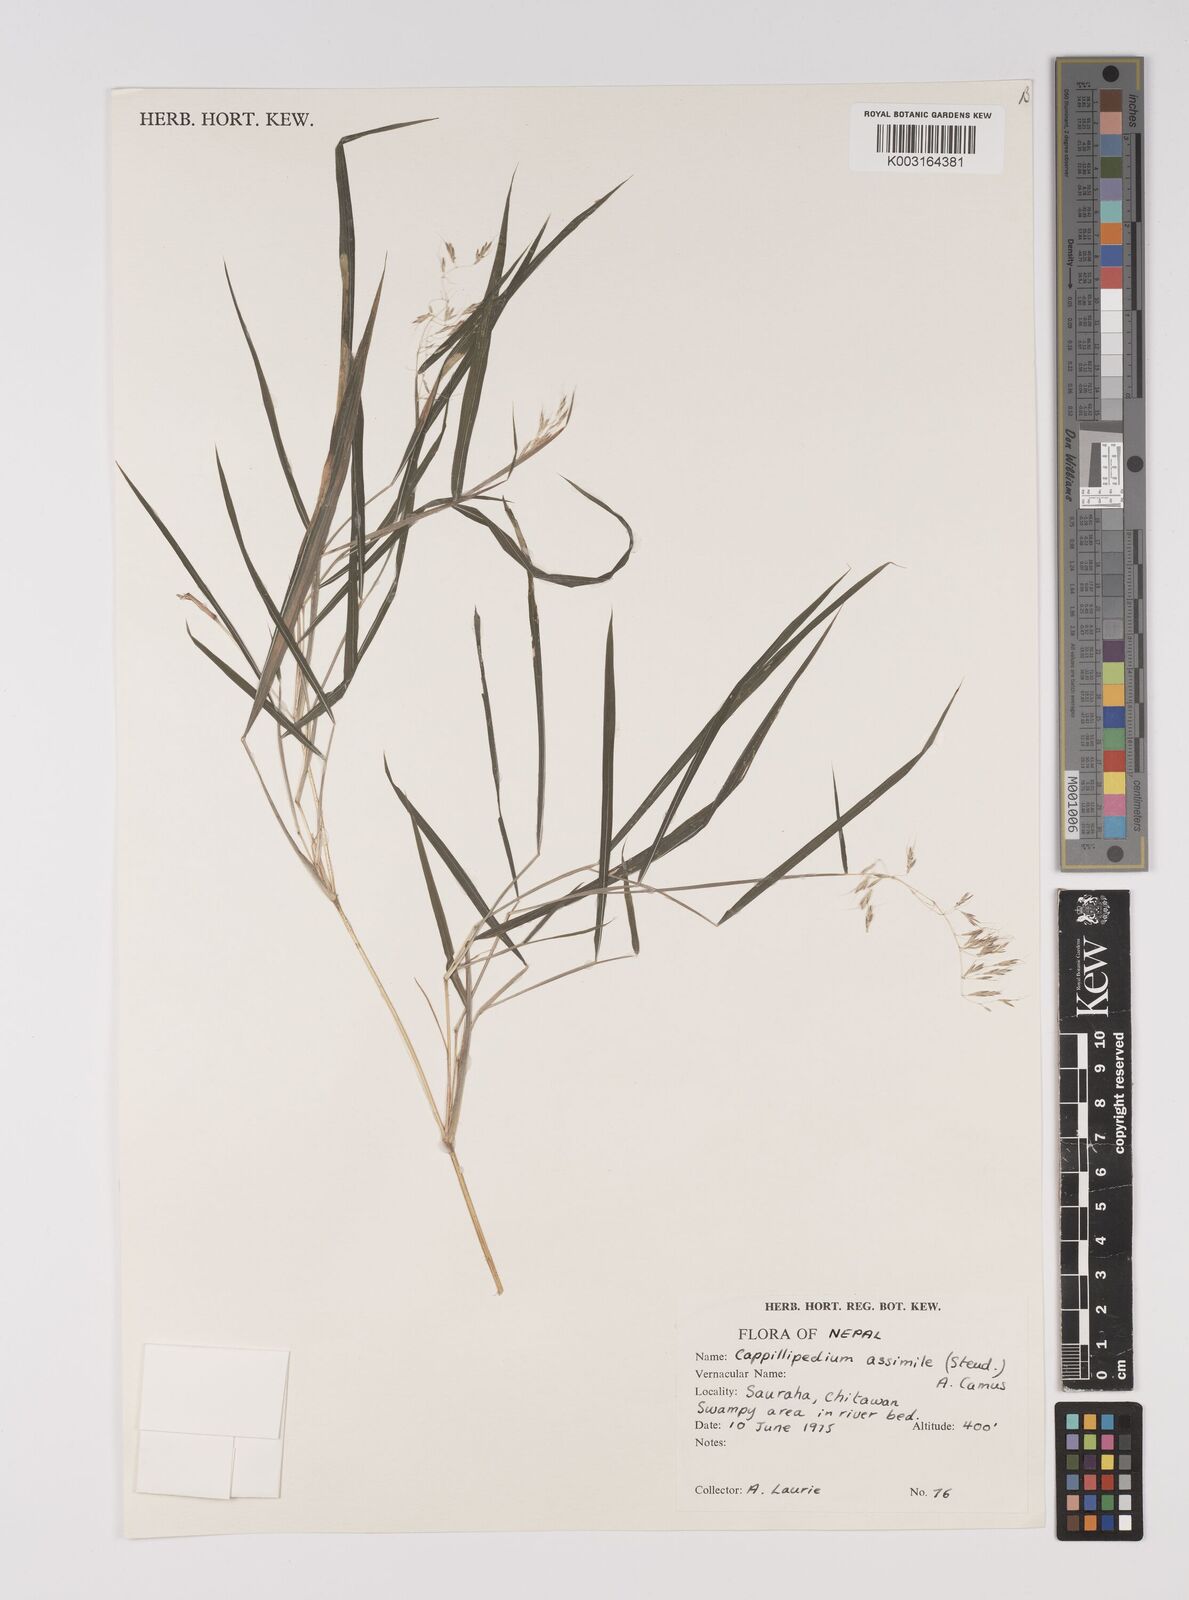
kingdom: Plantae
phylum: Tracheophyta
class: Liliopsida
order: Poales
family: Poaceae
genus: Capillipedium
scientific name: Capillipedium assimile
